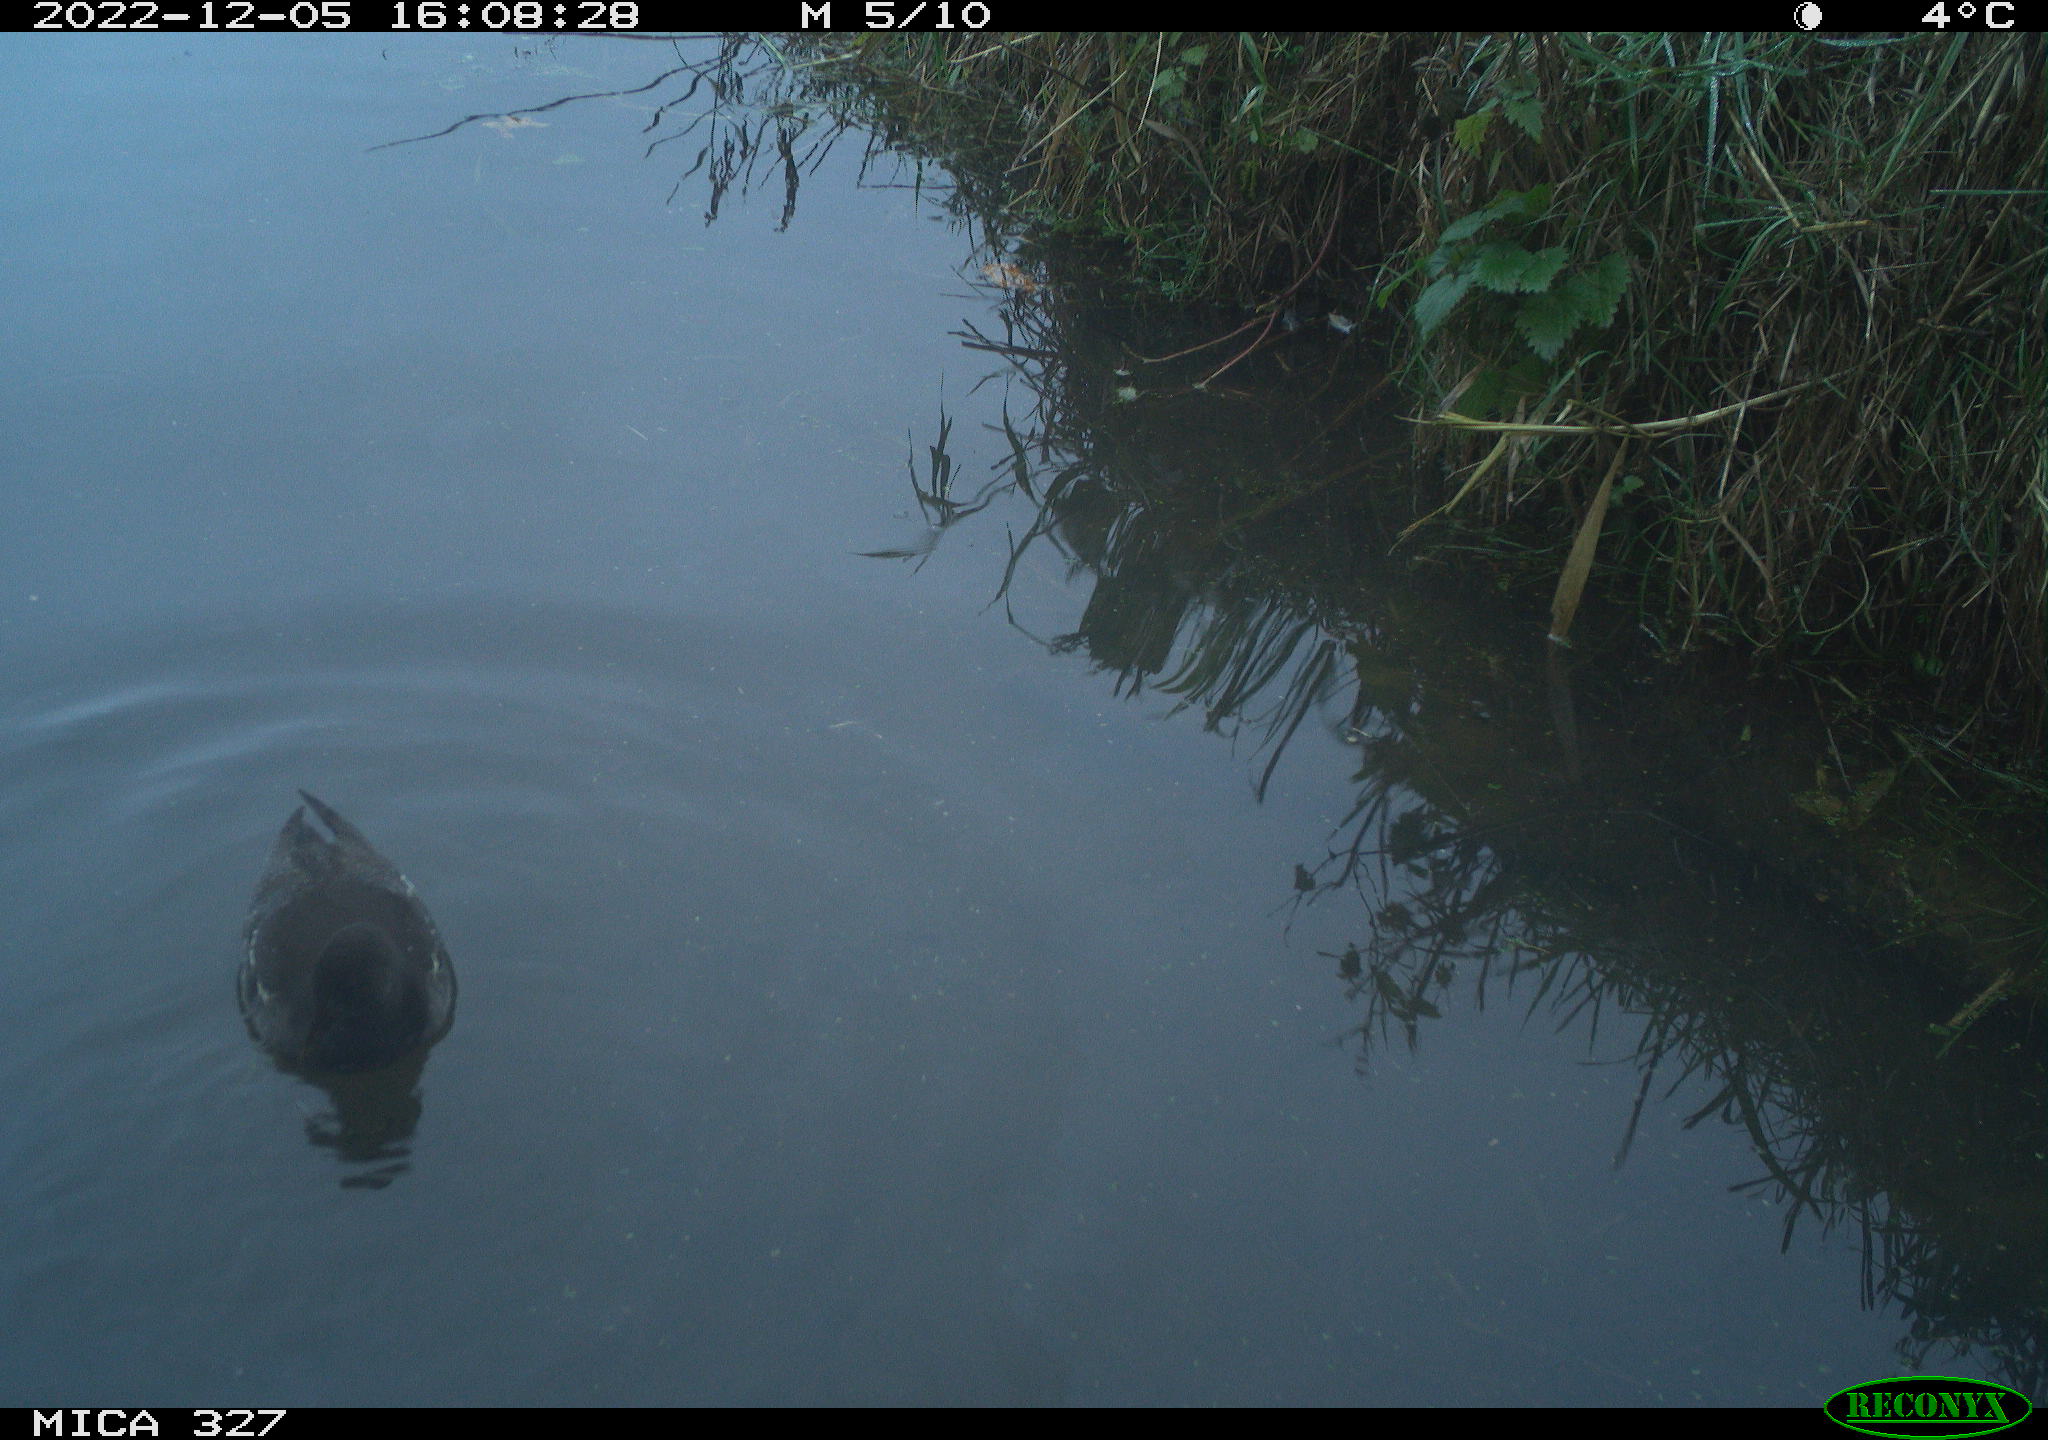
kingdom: Animalia
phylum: Chordata
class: Aves
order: Gruiformes
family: Rallidae
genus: Fulica
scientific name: Fulica atra
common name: Eurasian coot
